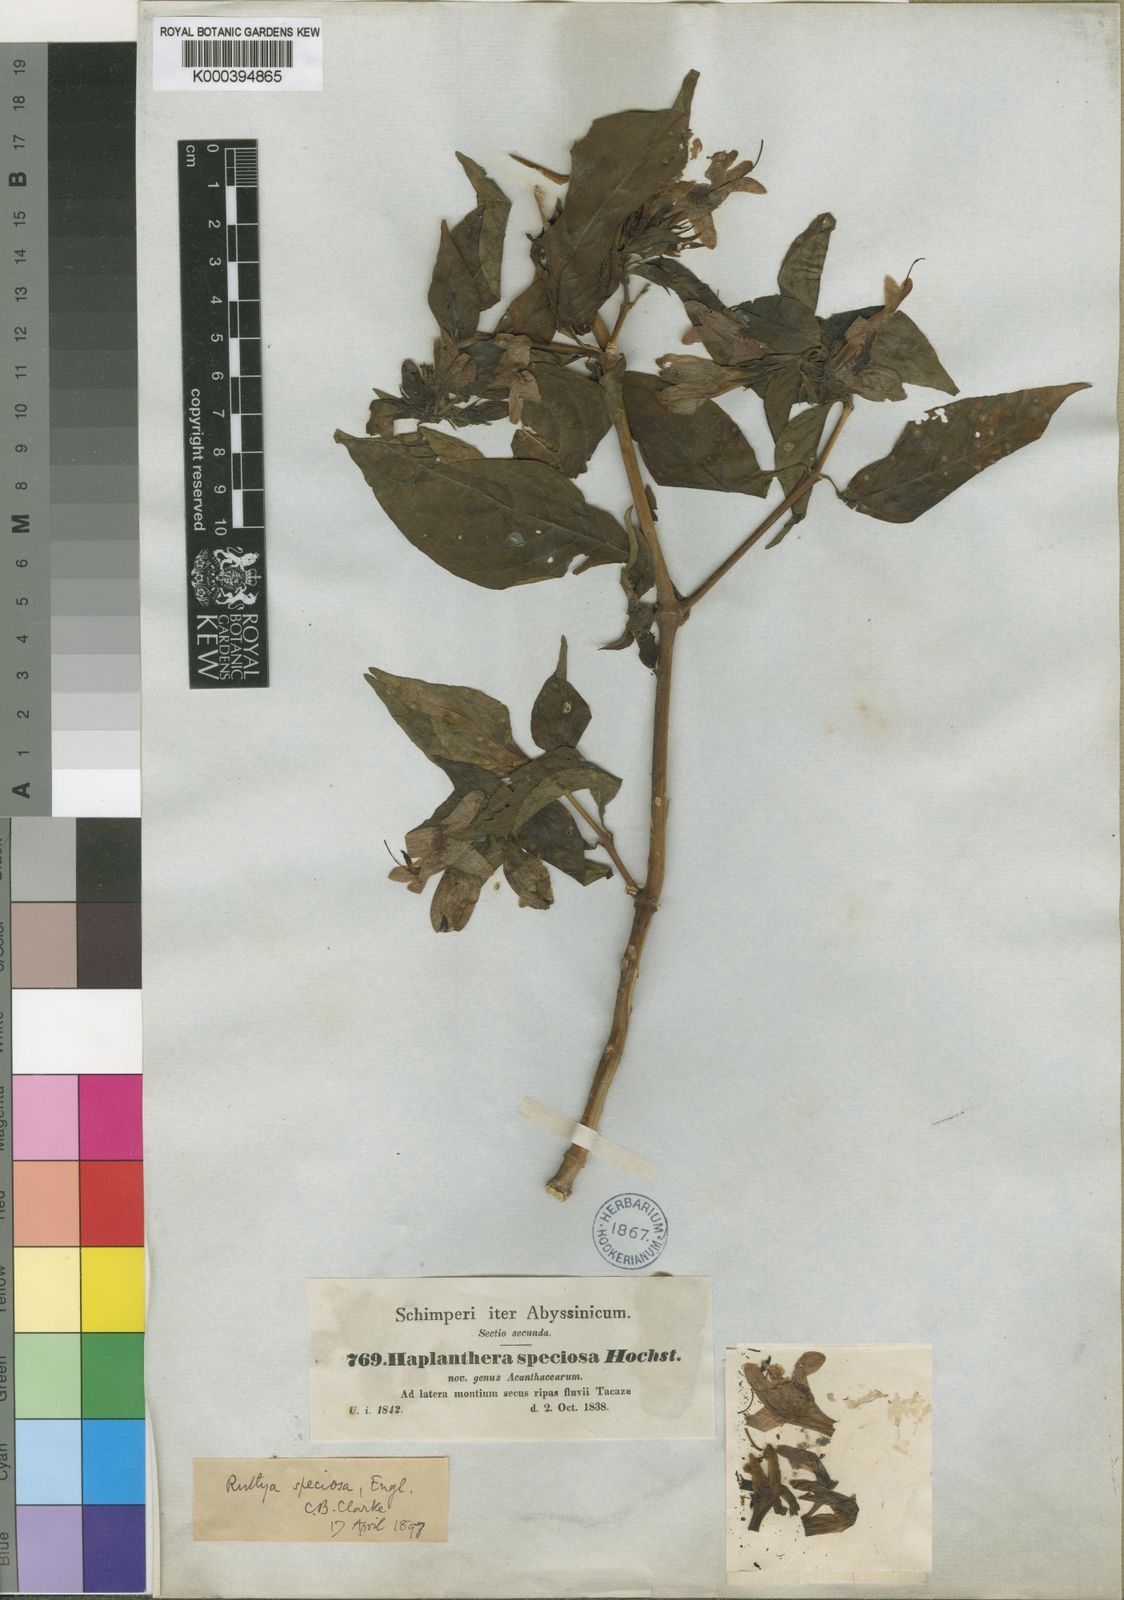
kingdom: Plantae
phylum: Tracheophyta
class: Magnoliopsida
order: Lamiales
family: Acanthaceae
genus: Ruttya
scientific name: Ruttya speciosa
